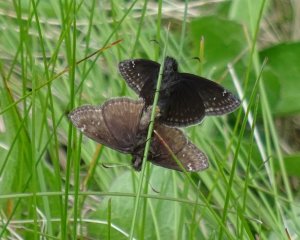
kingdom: Animalia
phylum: Arthropoda
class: Insecta
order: Lepidoptera
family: Hesperiidae
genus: Gesta
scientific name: Gesta
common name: Wild Indigo Duskywing
